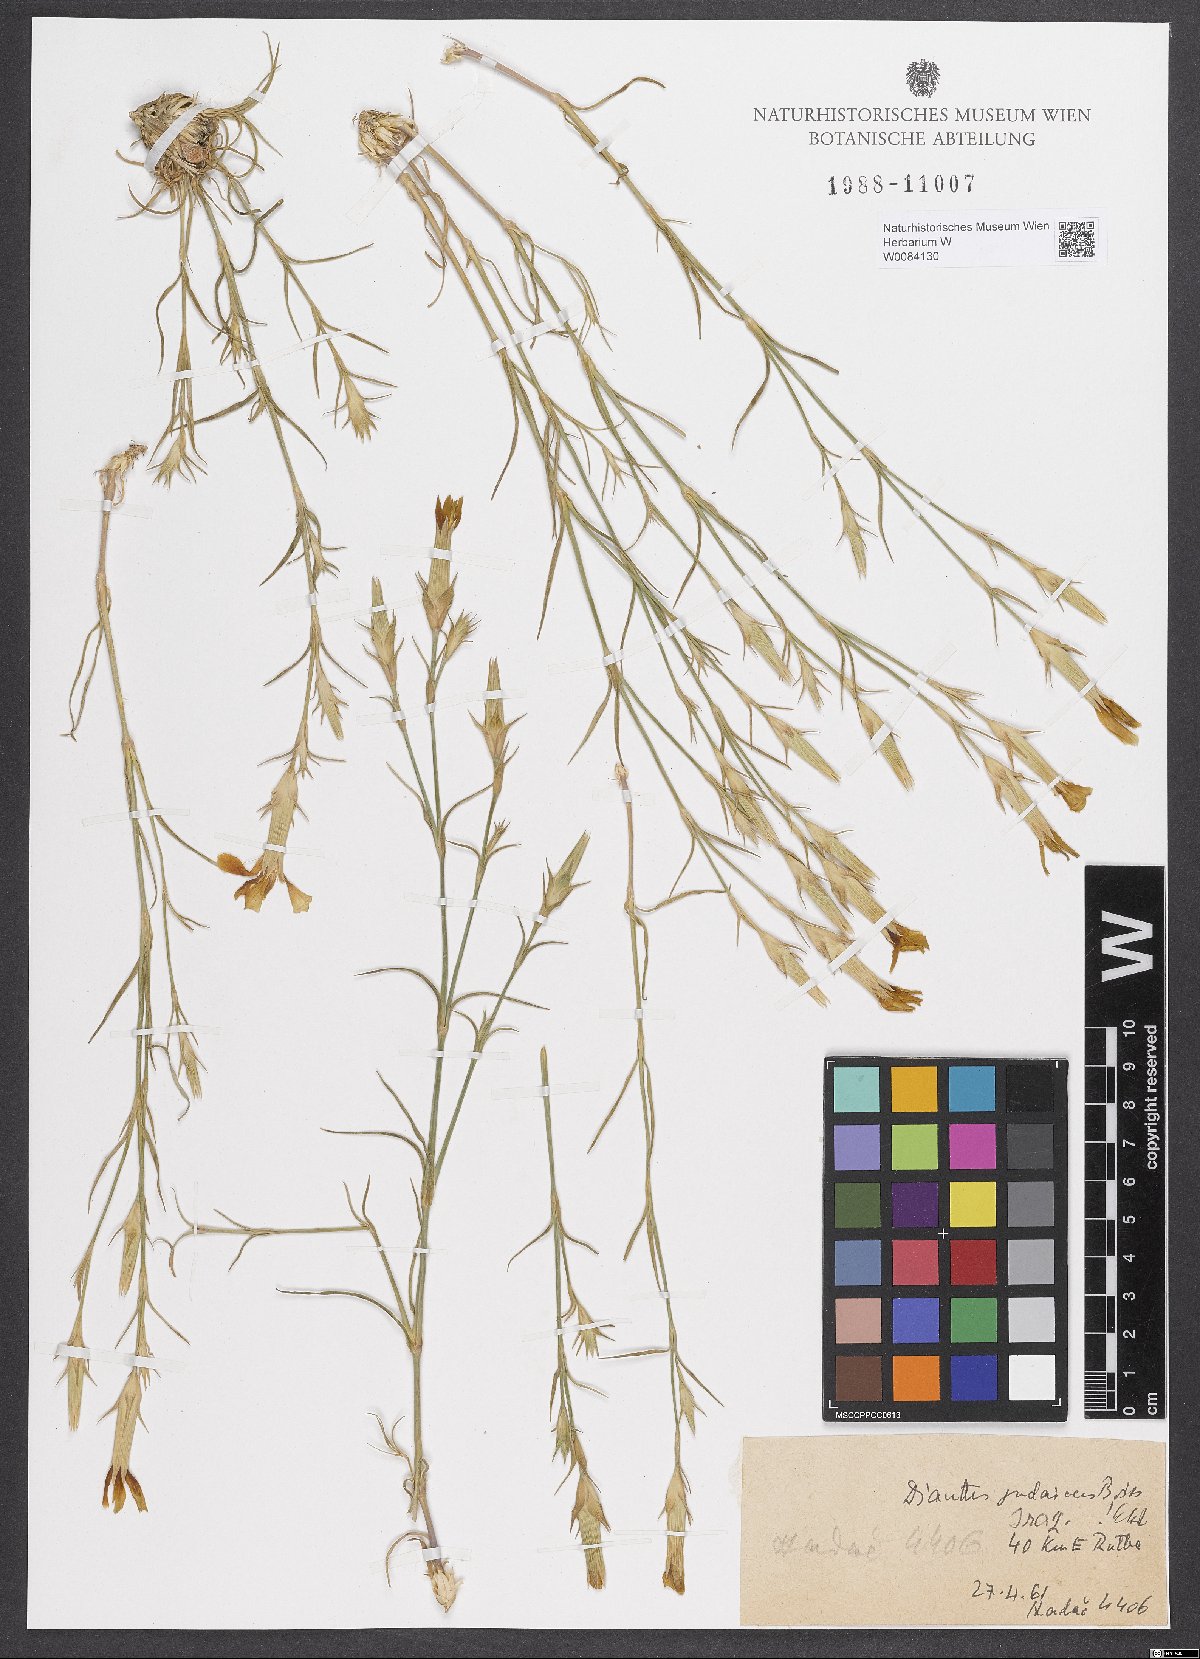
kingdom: Plantae
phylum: Tracheophyta
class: Magnoliopsida
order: Caryophyllales
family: Caryophyllaceae
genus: Dianthus
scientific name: Dianthus monadelphus
